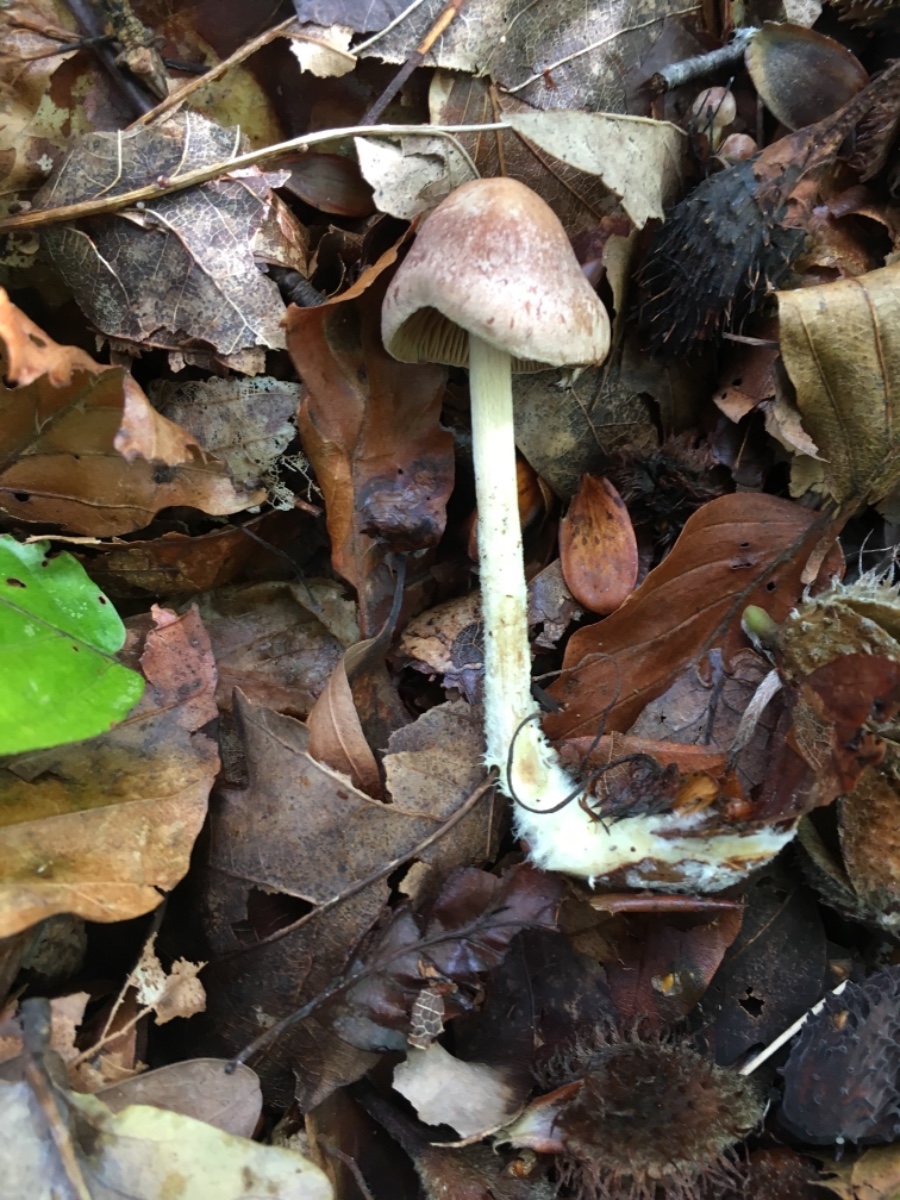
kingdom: Fungi
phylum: Basidiomycota
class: Agaricomycetes
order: Agaricales
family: Omphalotaceae
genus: Collybiopsis
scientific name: Collybiopsis peronata
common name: bestøvlet fladhat
